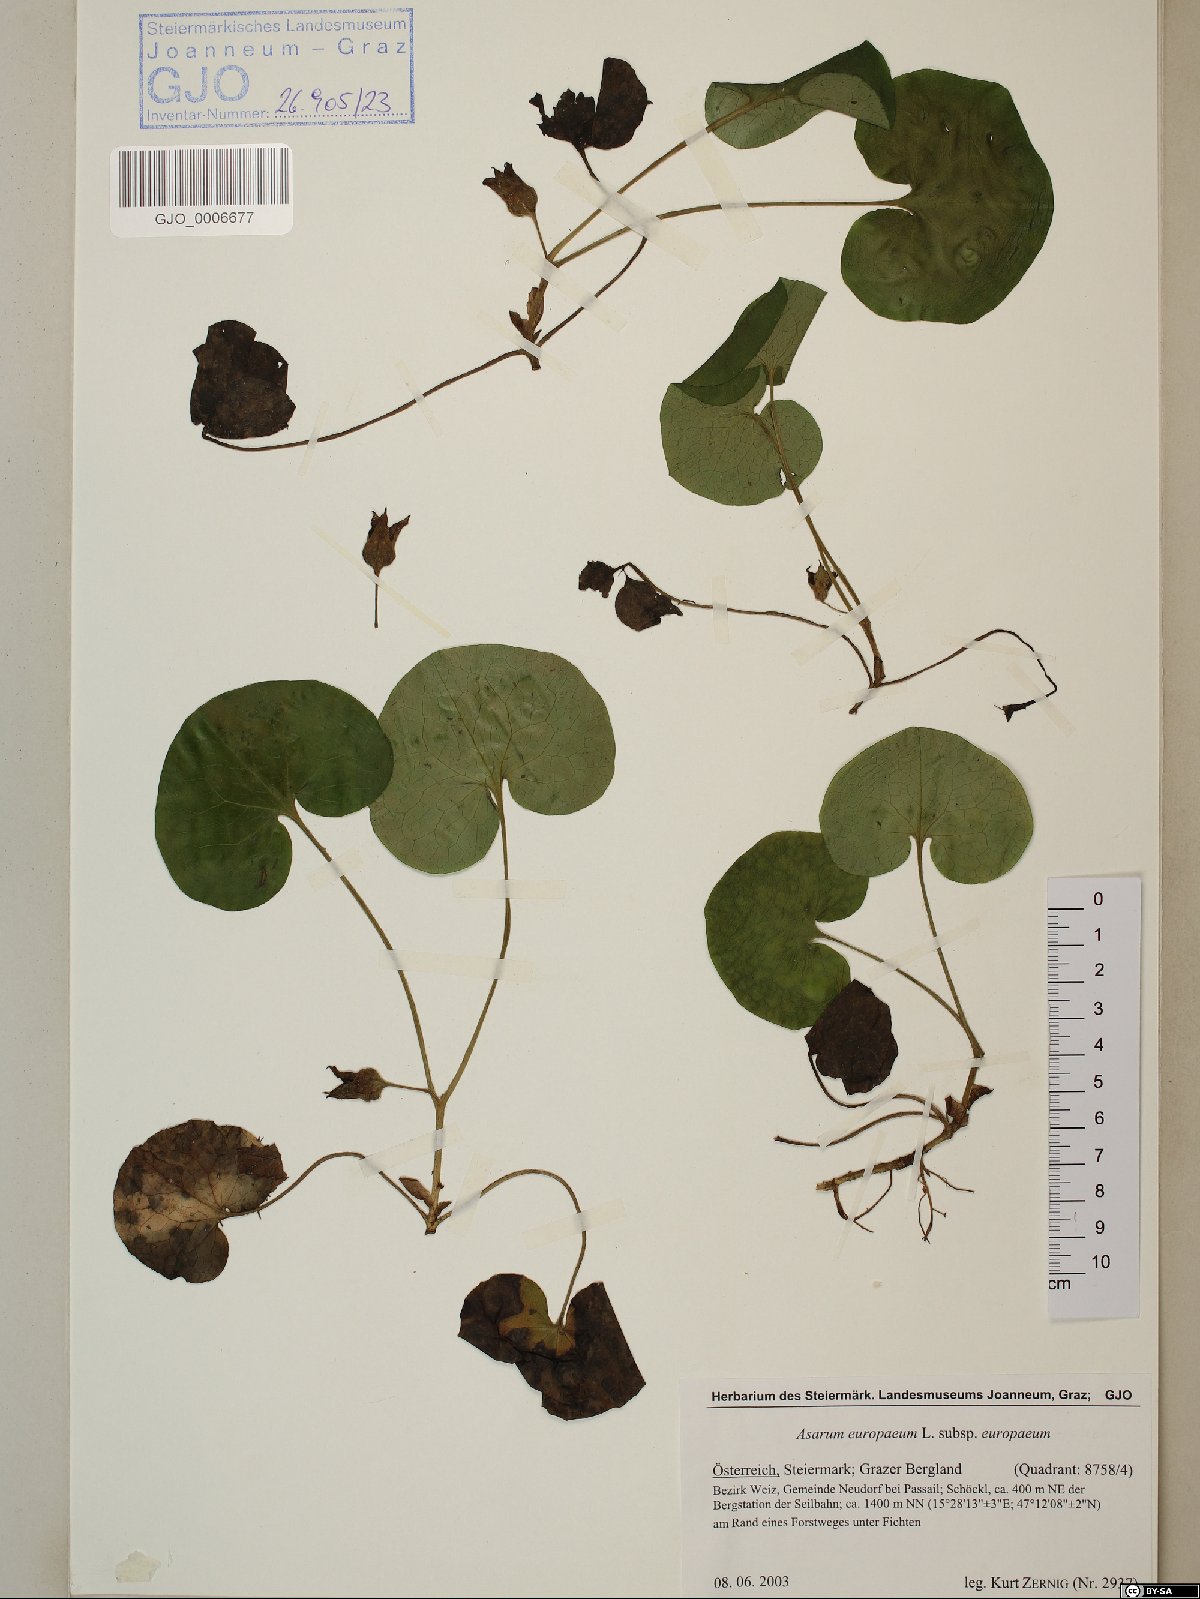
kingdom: Plantae
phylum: Tracheophyta
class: Magnoliopsida
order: Piperales
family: Aristolochiaceae
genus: Asarum
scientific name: Asarum europaeum
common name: Asarabacca
